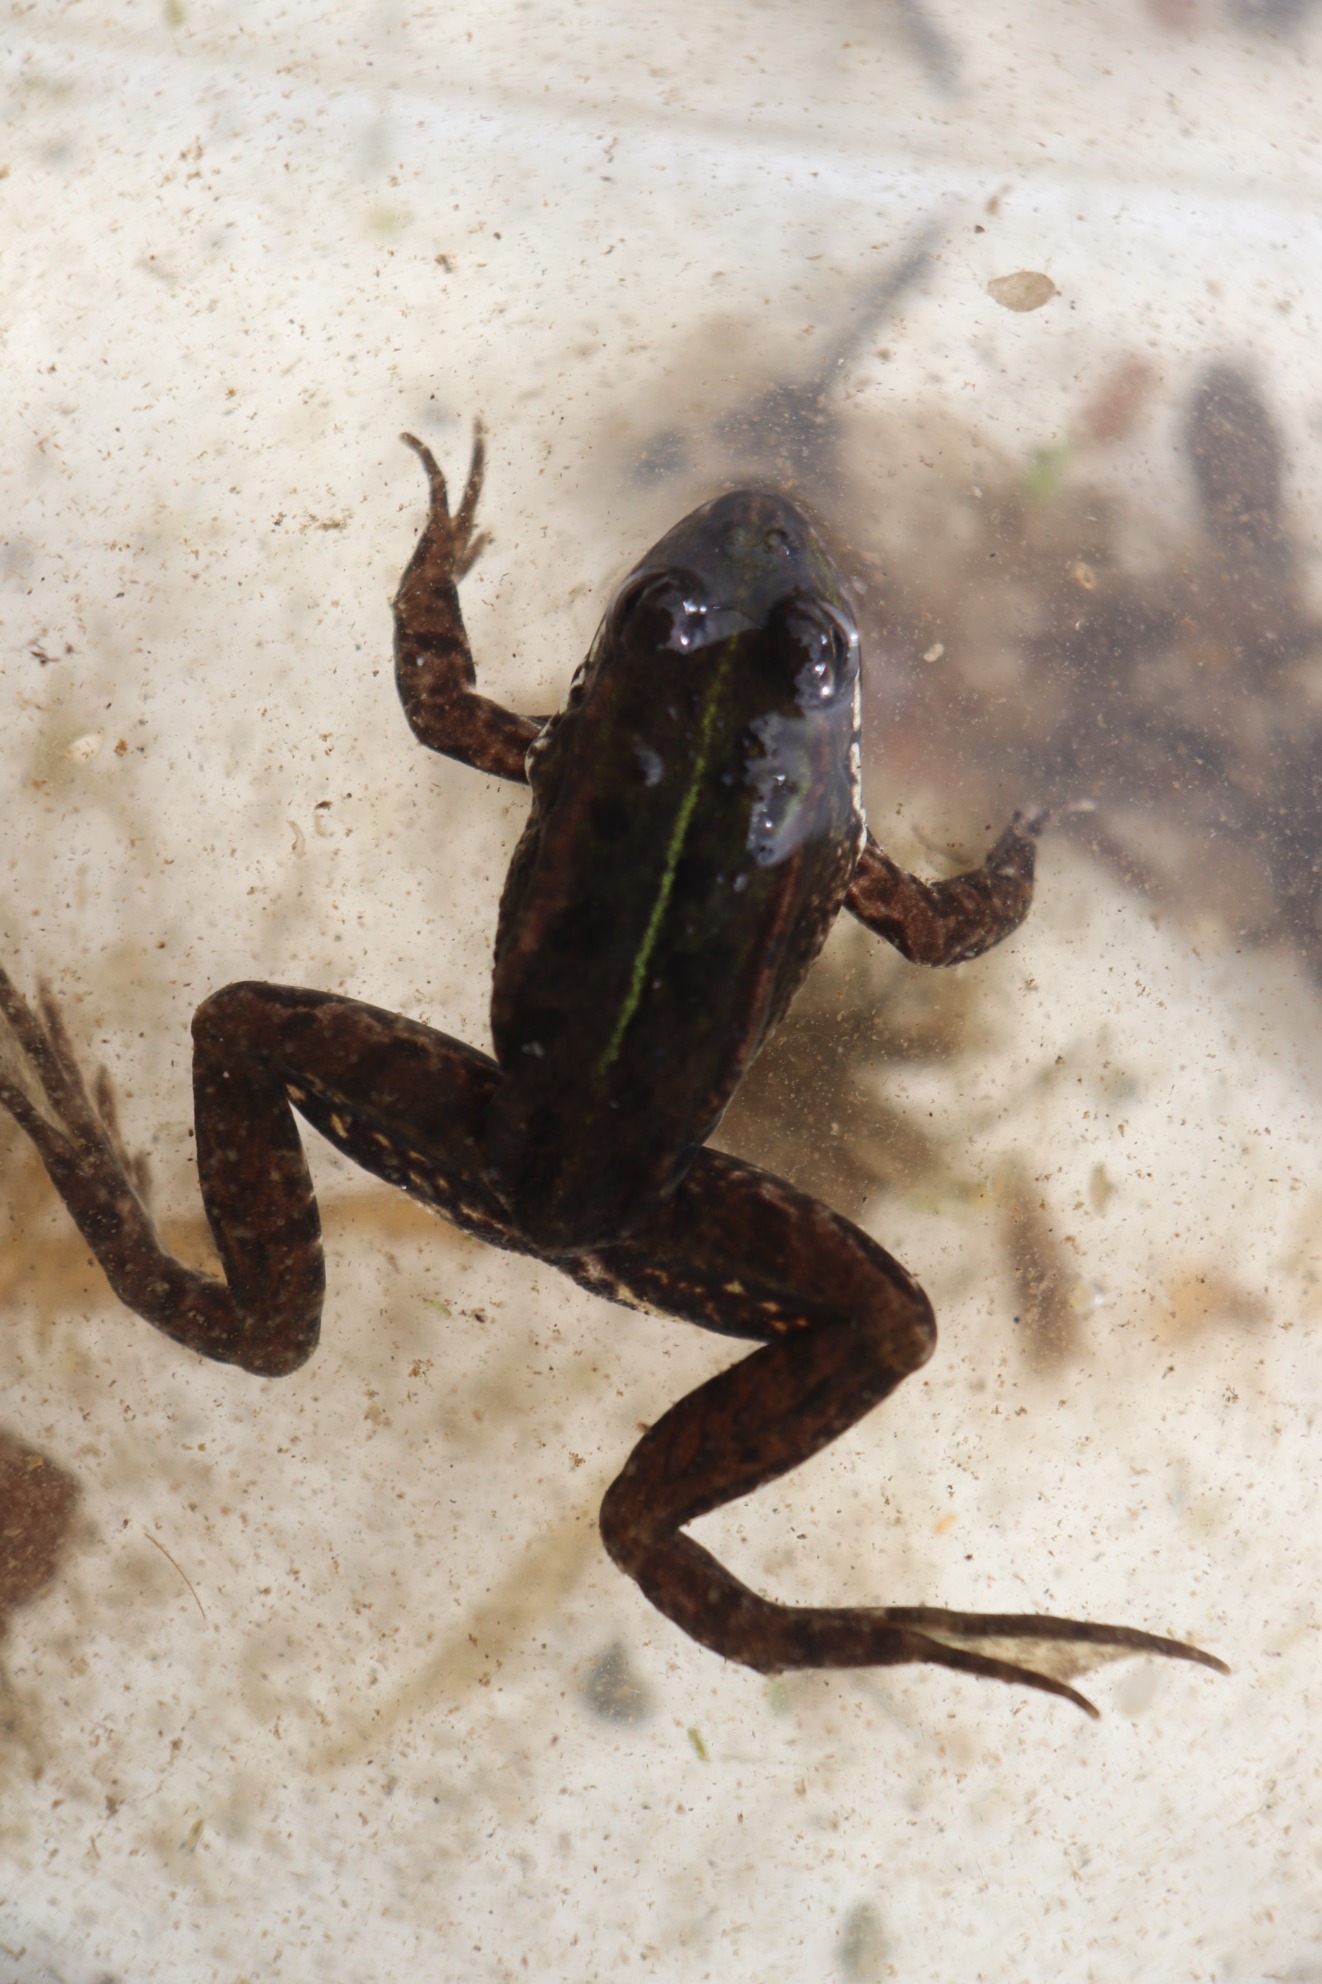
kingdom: Animalia
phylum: Chordata
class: Amphibia
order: Anura
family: Ranidae
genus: Pelophylax
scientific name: Pelophylax lessonae
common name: Grøn frø
